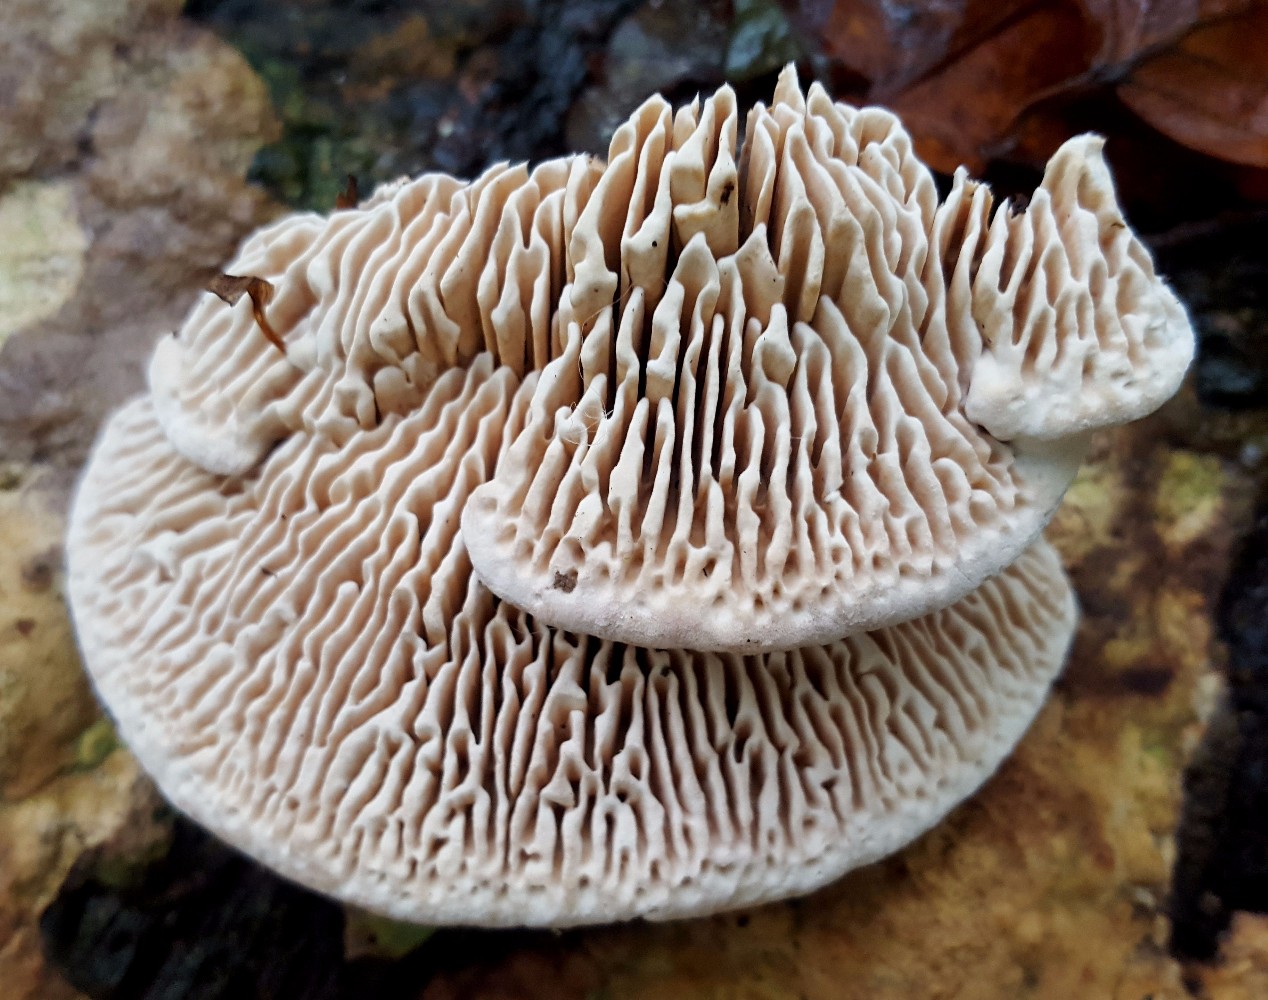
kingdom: Fungi
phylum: Basidiomycota
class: Agaricomycetes
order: Polyporales
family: Fomitopsidaceae
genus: Daedalea
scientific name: Daedalea quercina
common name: ege-labyrintsvamp
